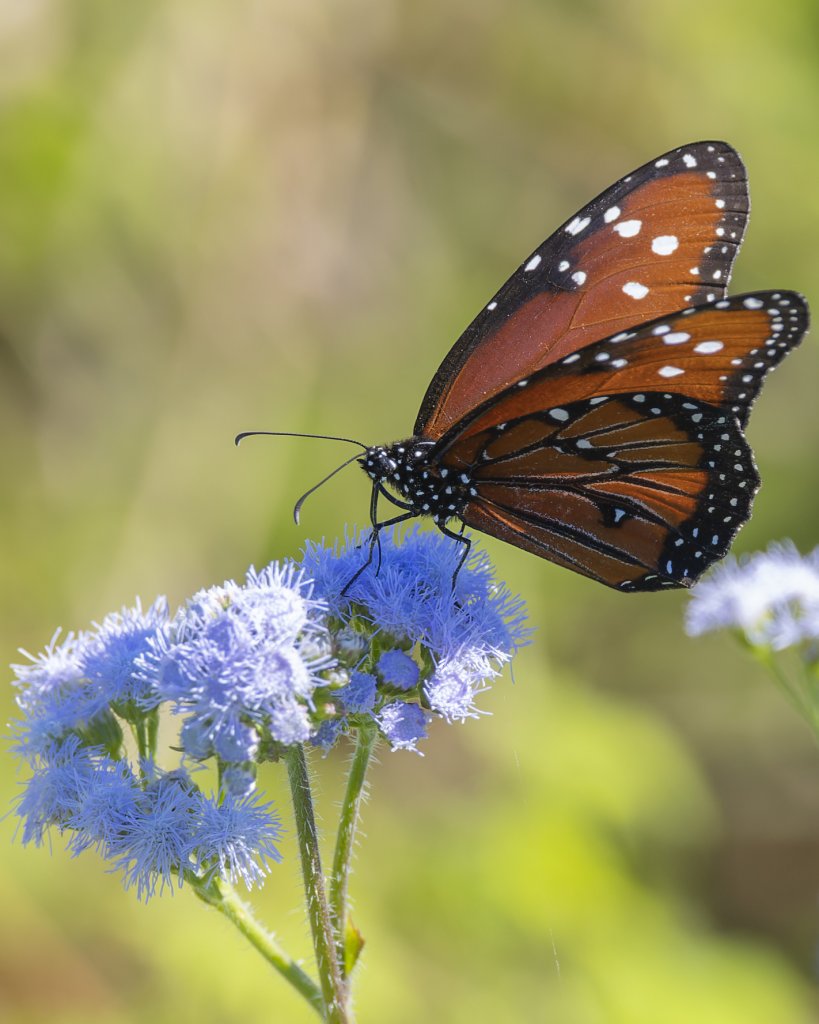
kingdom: Animalia
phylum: Arthropoda
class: Insecta
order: Lepidoptera
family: Nymphalidae
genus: Danaus
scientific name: Danaus gilippus
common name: Queen
